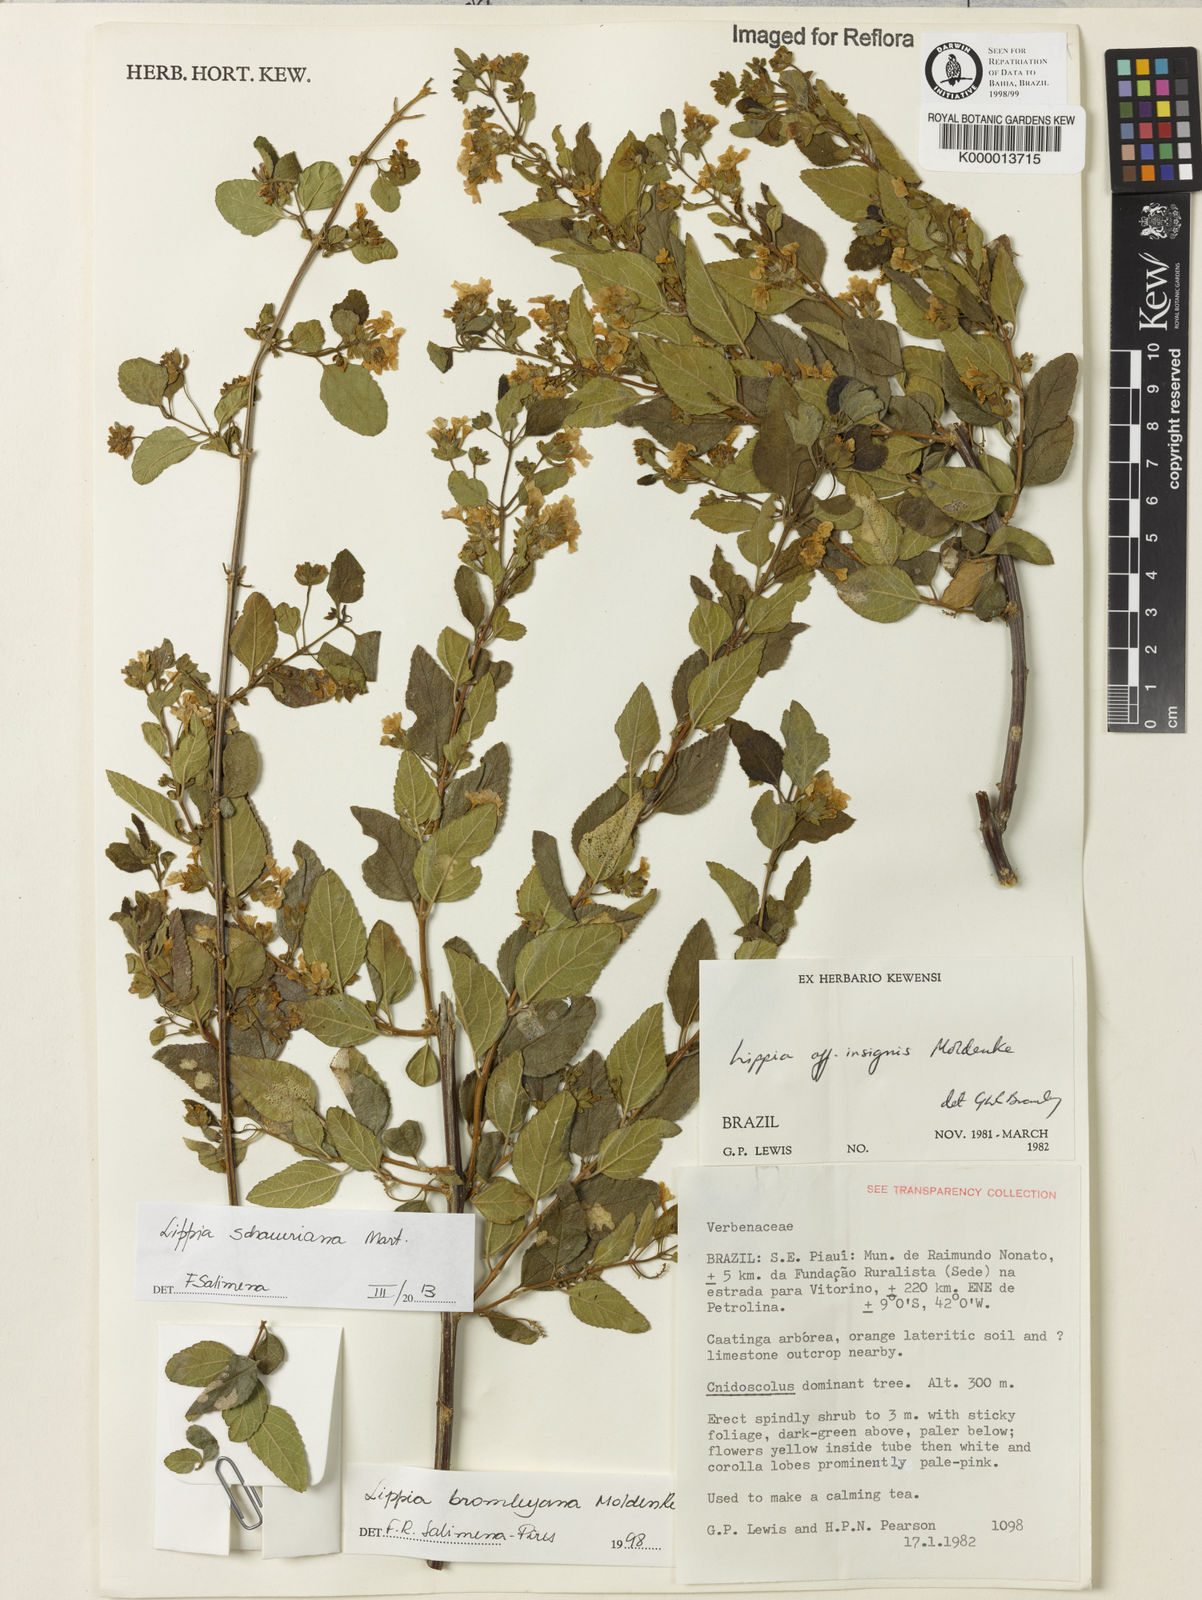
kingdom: Plantae
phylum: Tracheophyta
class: Magnoliopsida
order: Lamiales
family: Verbenaceae
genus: Lippia
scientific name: Lippia bromleyana
